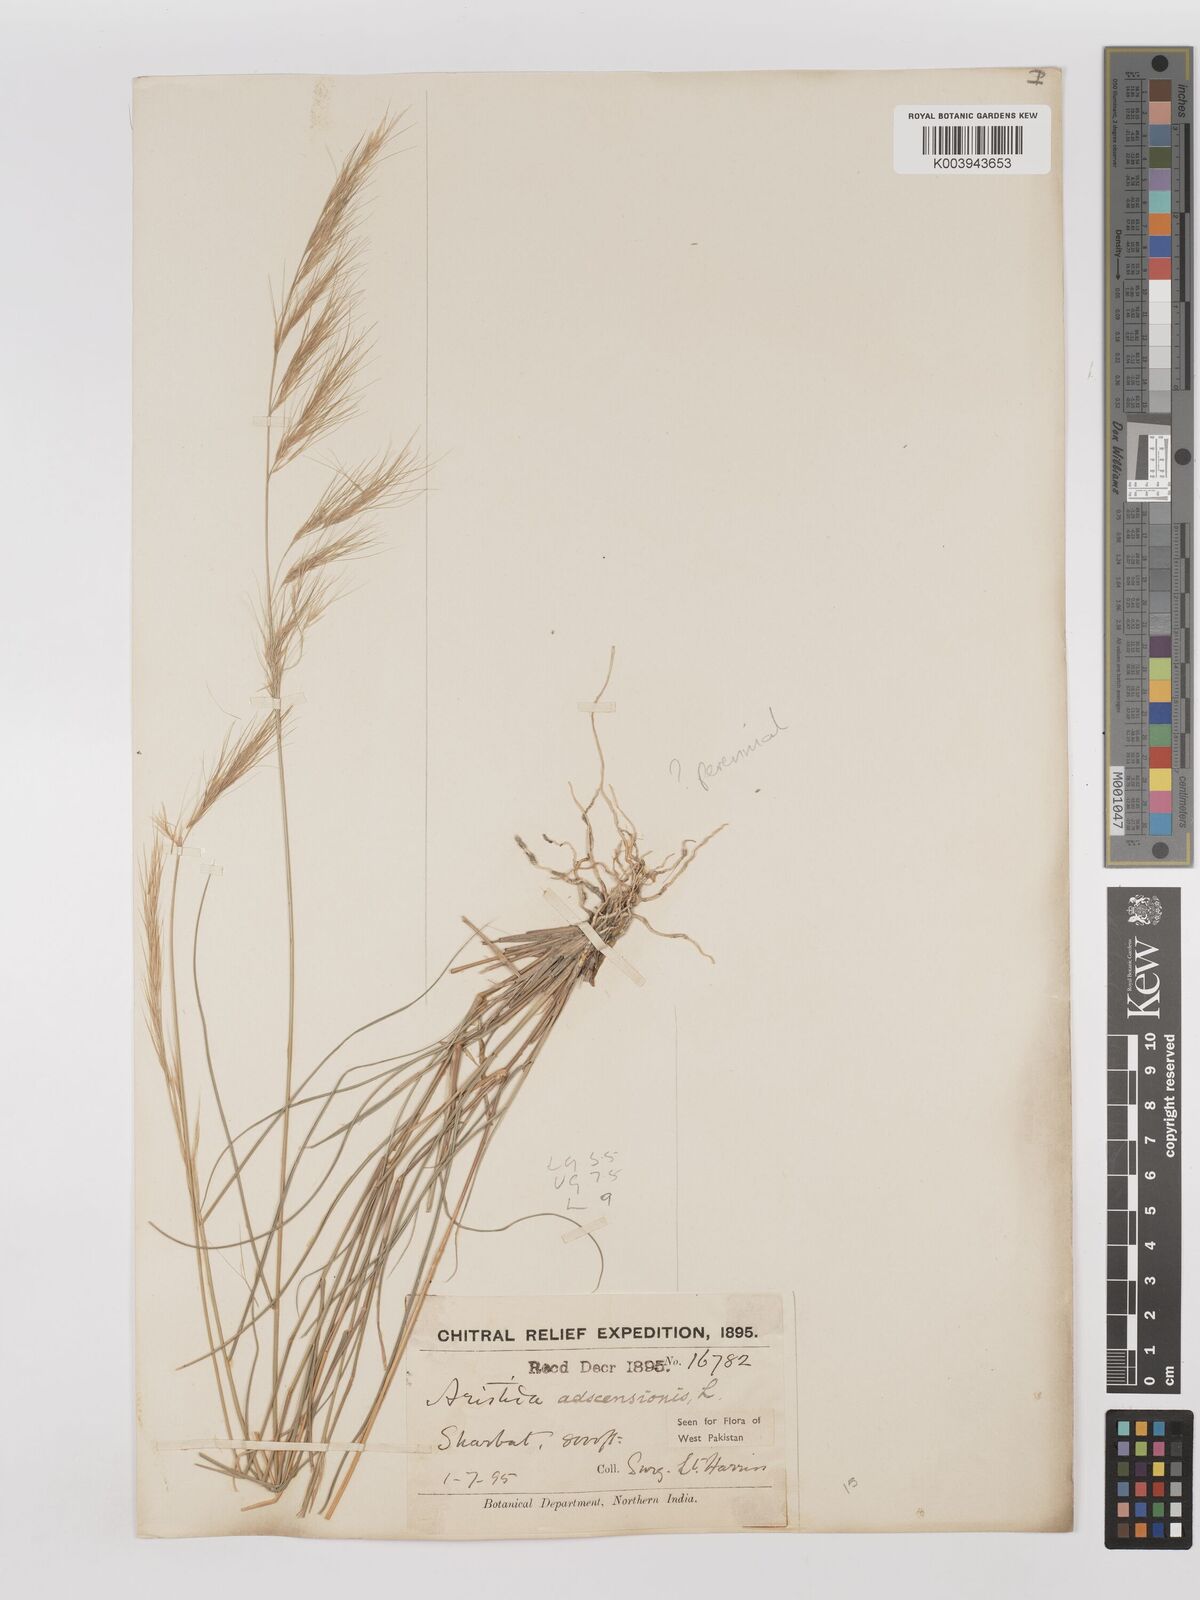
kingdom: Plantae
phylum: Tracheophyta
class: Liliopsida
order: Poales
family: Poaceae
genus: Aristida
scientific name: Aristida adscensionis
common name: Sixweeks threeawn
